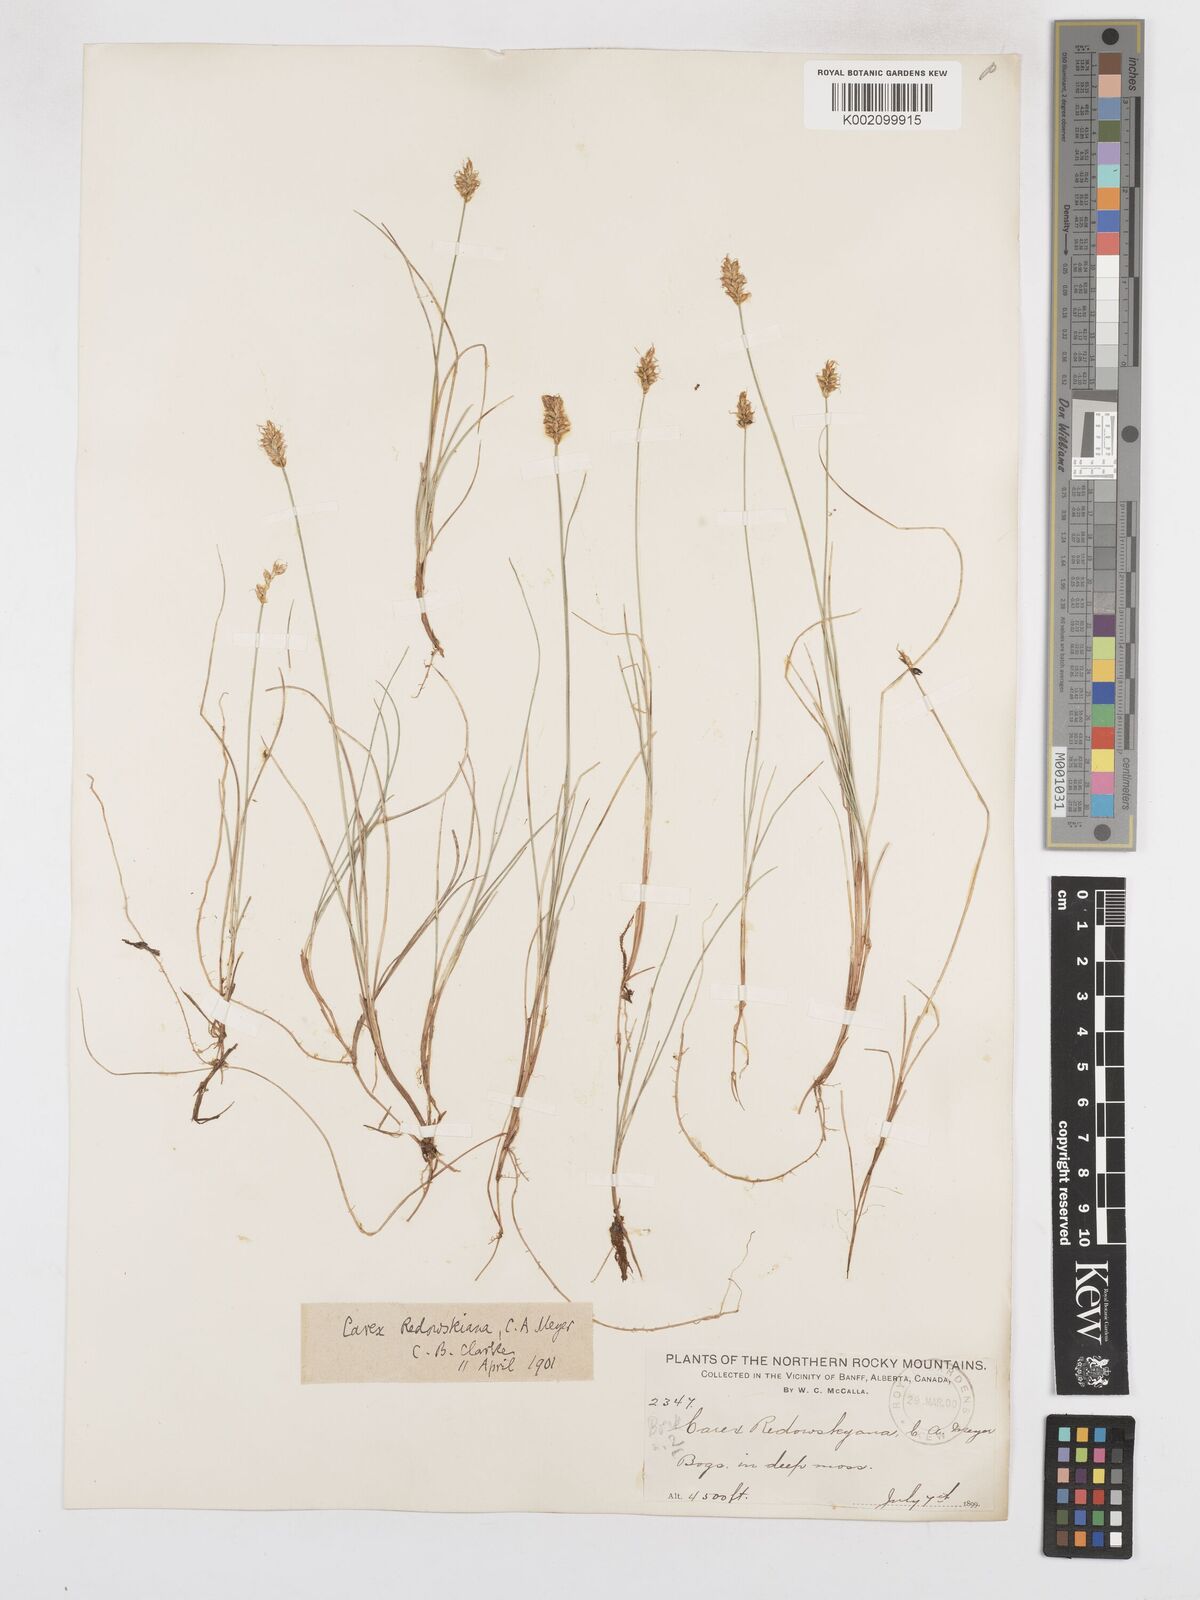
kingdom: Plantae
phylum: Tracheophyta
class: Liliopsida
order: Poales
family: Cyperaceae
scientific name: Cyperaceae
